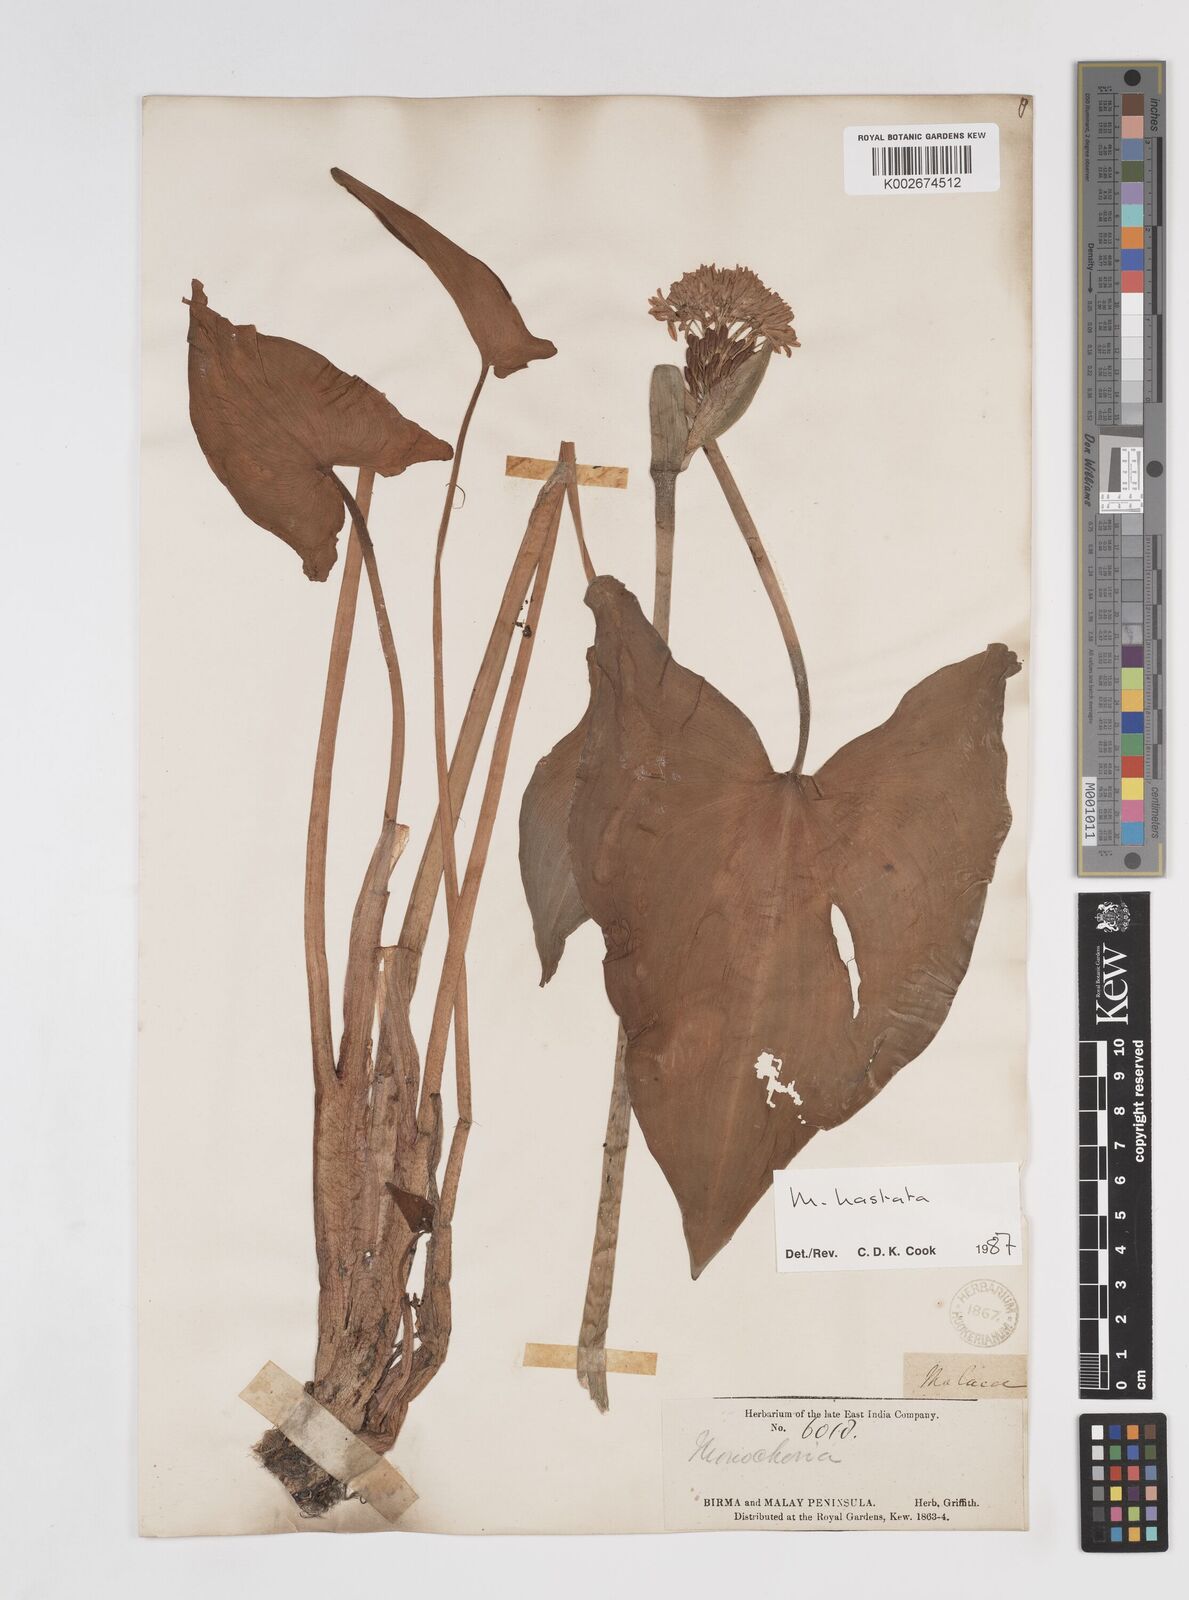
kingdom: Plantae
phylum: Tracheophyta
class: Liliopsida
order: Commelinales
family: Pontederiaceae
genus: Pontederia
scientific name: Pontederia vaginalis
